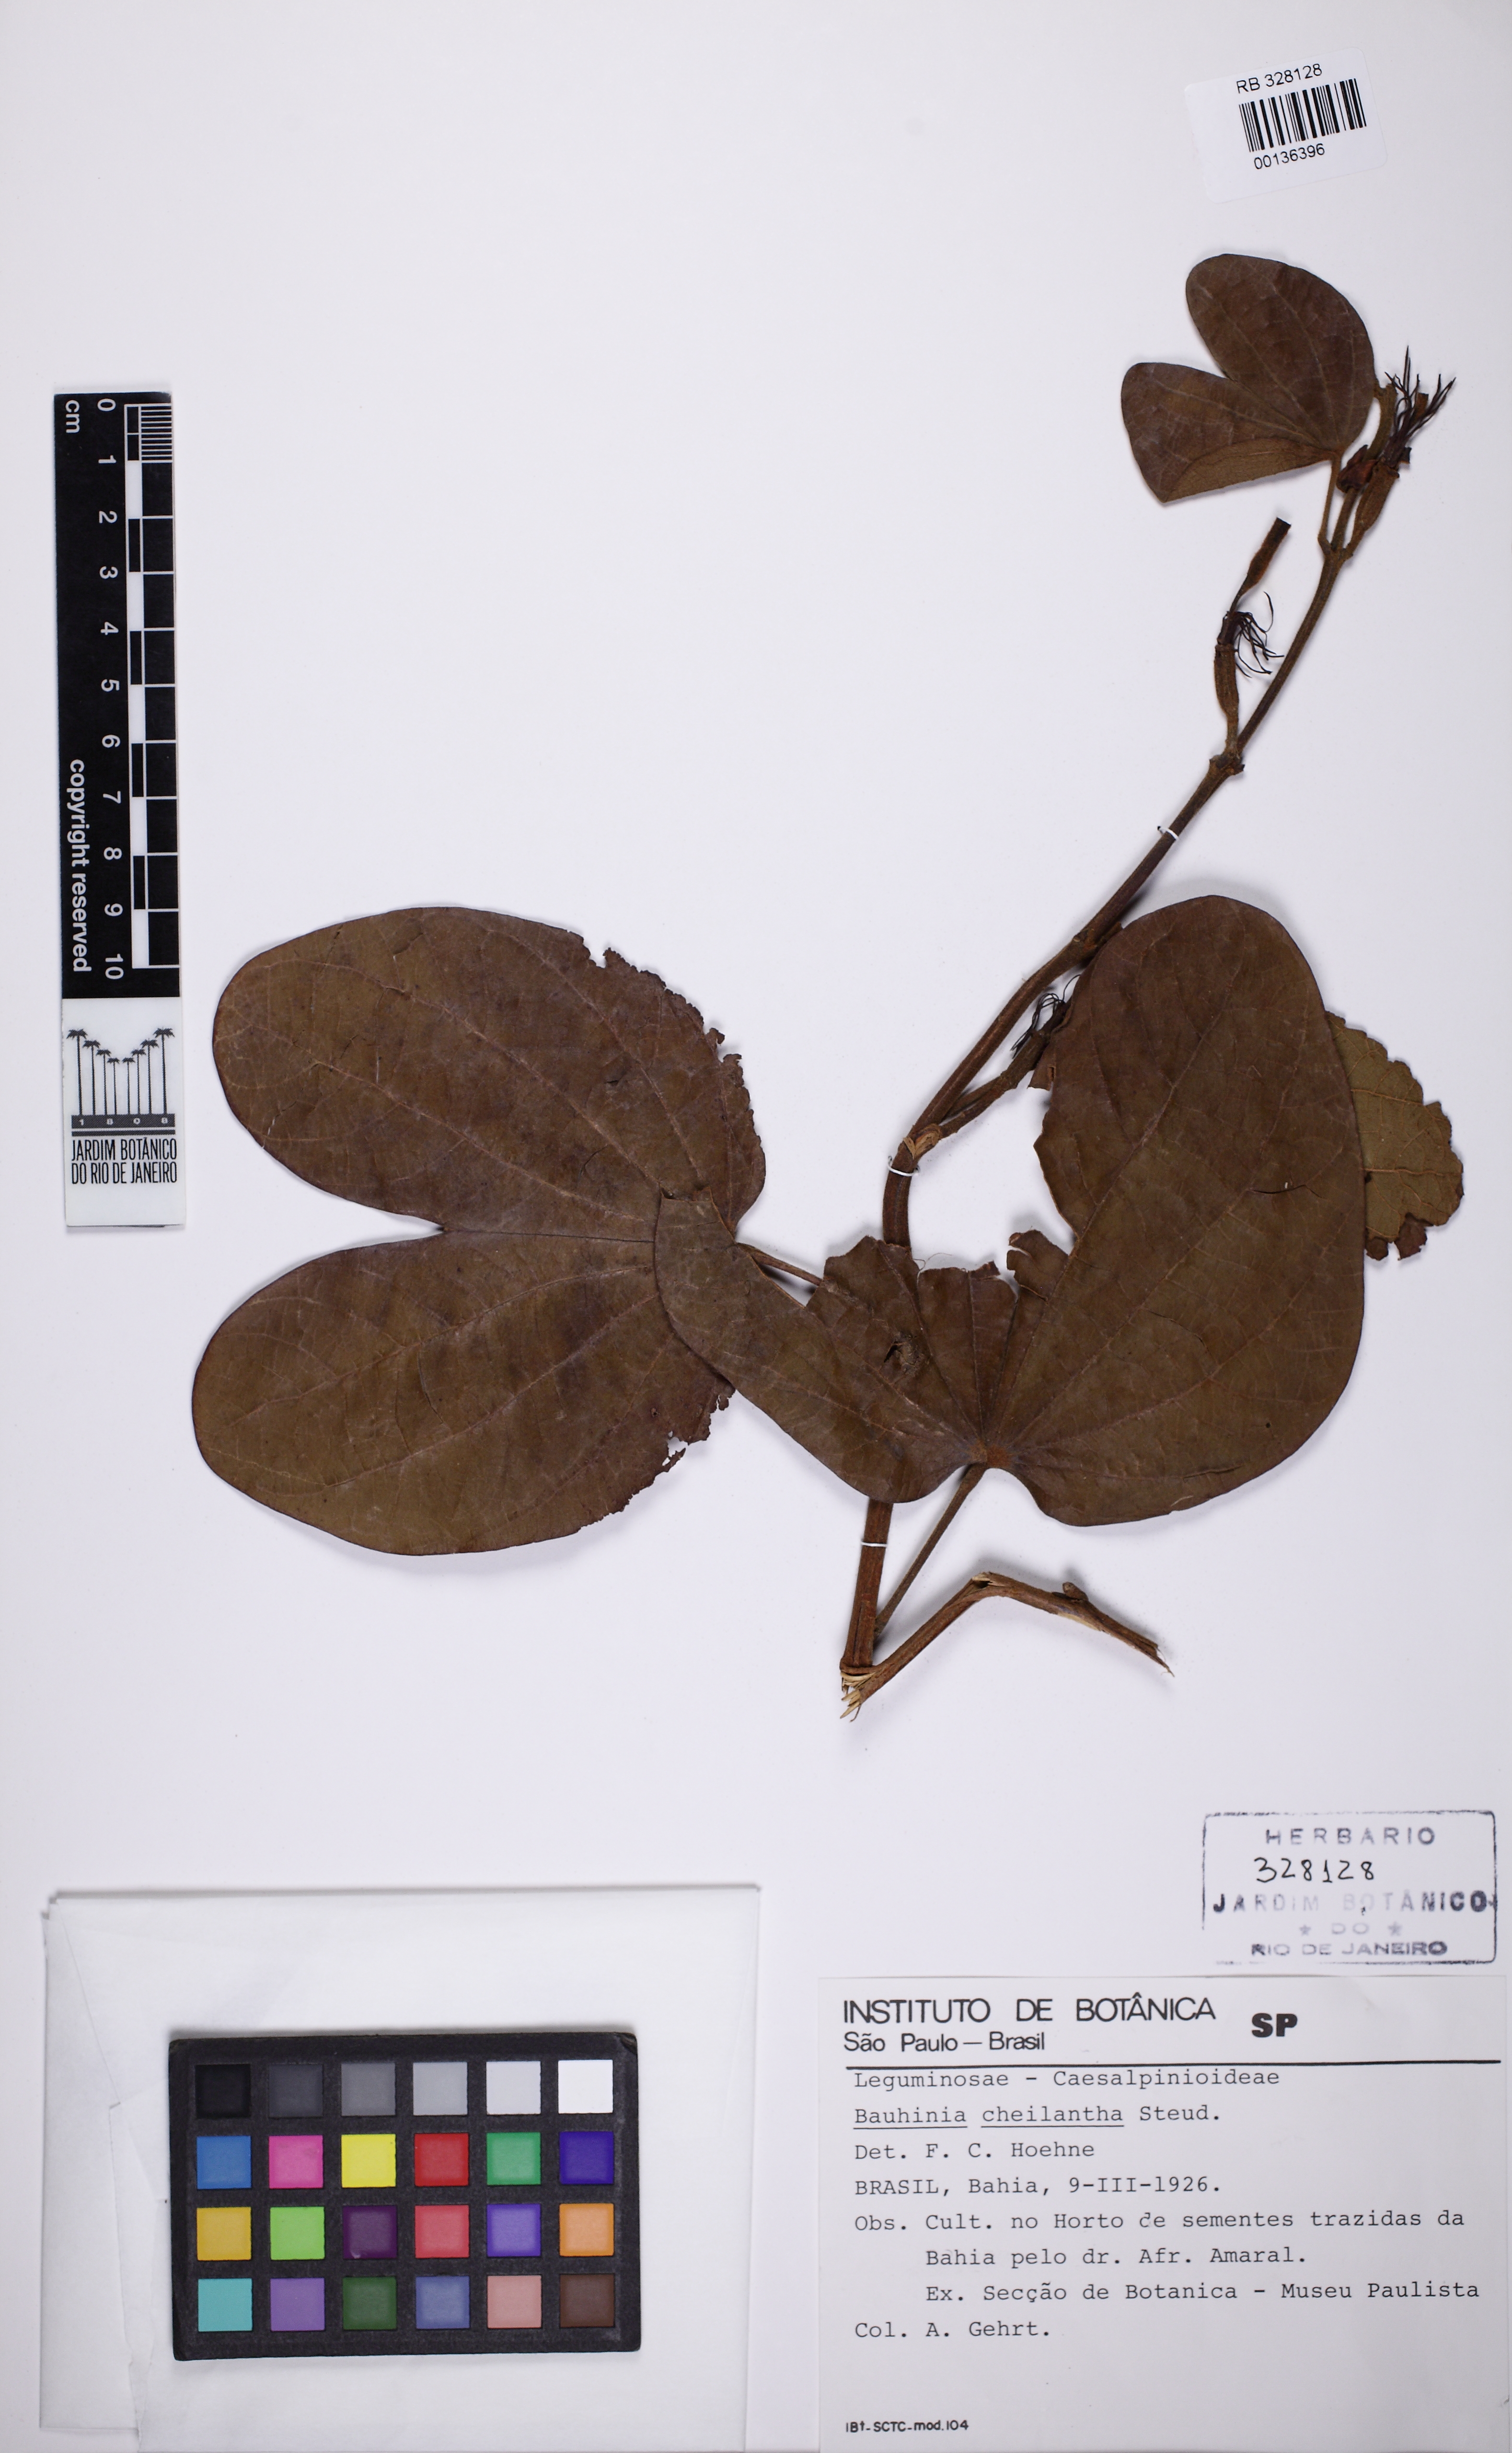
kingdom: Plantae
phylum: Tracheophyta
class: Magnoliopsida
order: Fabales
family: Fabaceae
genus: Bauhinia
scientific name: Bauhinia cheilantha
